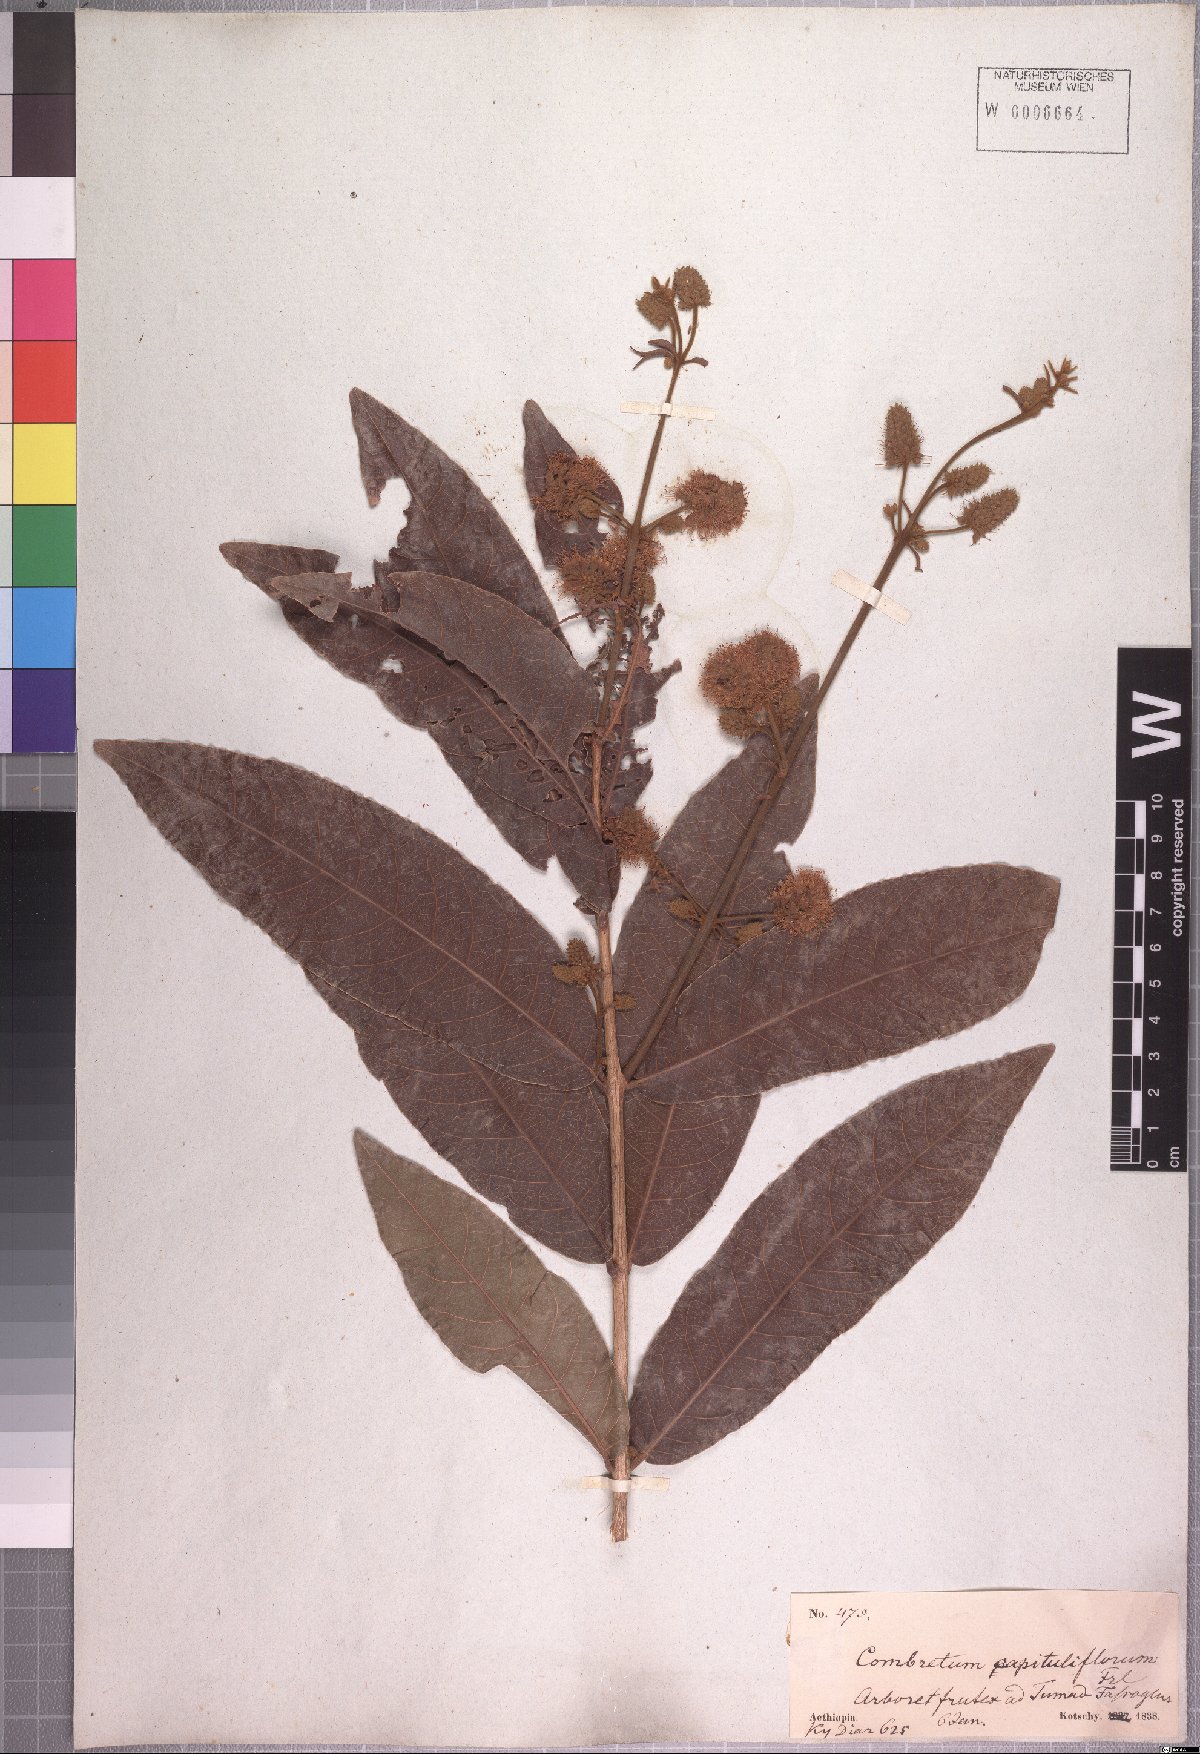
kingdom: Plantae
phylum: Tracheophyta
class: Magnoliopsida
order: Myrtales
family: Combretaceae
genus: Combretum
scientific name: Combretum capituliflorum
